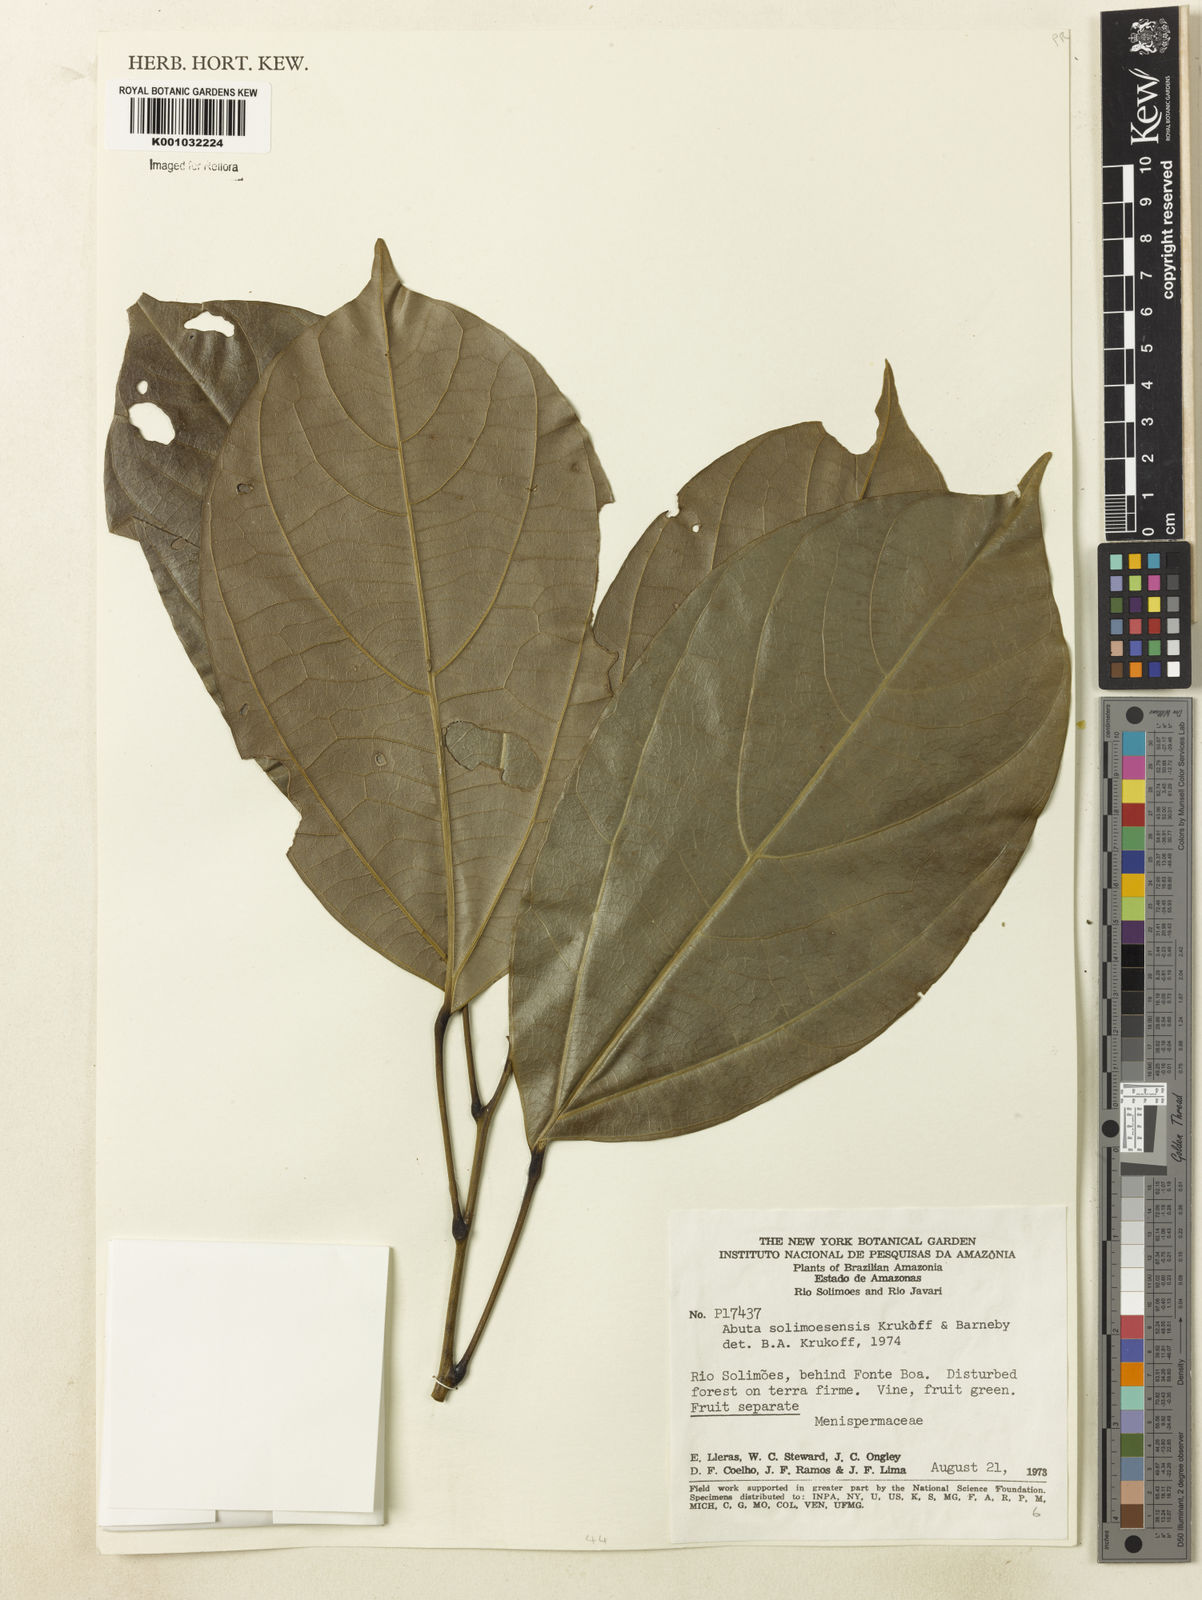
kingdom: Plantae
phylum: Tracheophyta
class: Magnoliopsida
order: Ranunculales
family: Menispermaceae
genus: Abuta
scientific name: Abuta solimoesensis
